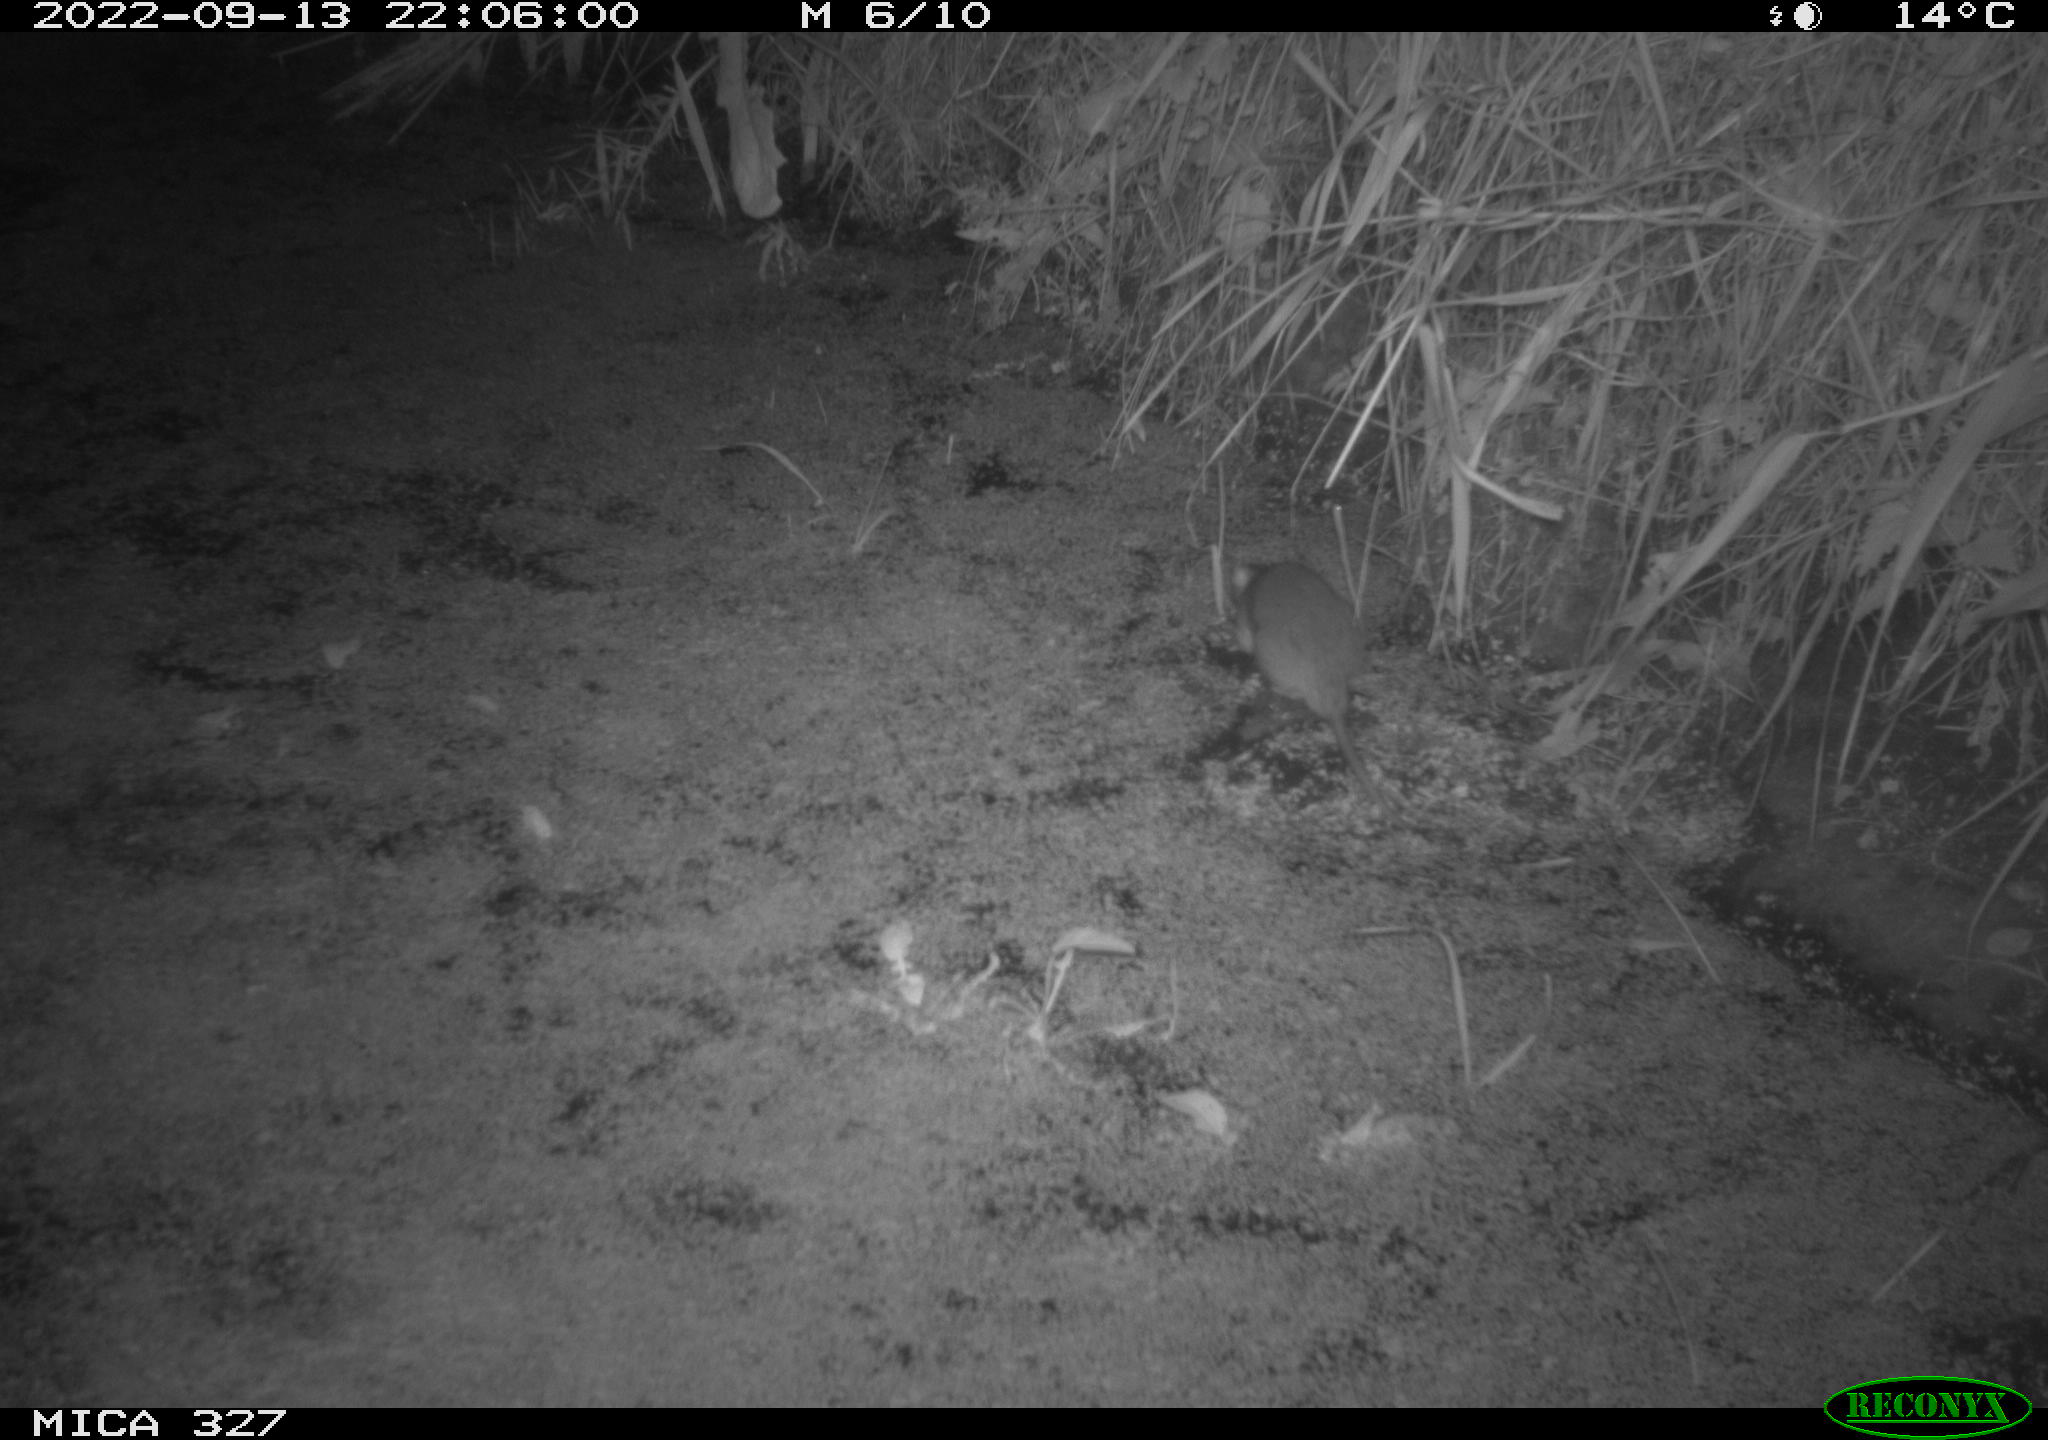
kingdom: Animalia
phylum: Chordata
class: Mammalia
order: Rodentia
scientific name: Rodentia
